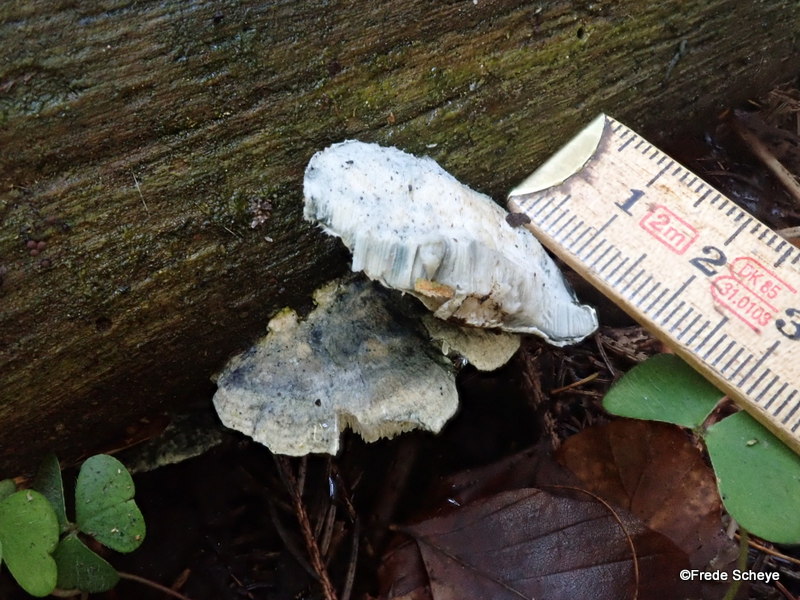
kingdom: Fungi
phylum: Basidiomycota
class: Agaricomycetes
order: Polyporales
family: Polyporaceae
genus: Cyanosporus
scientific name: Cyanosporus alni
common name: blegblå kødporesvamp
